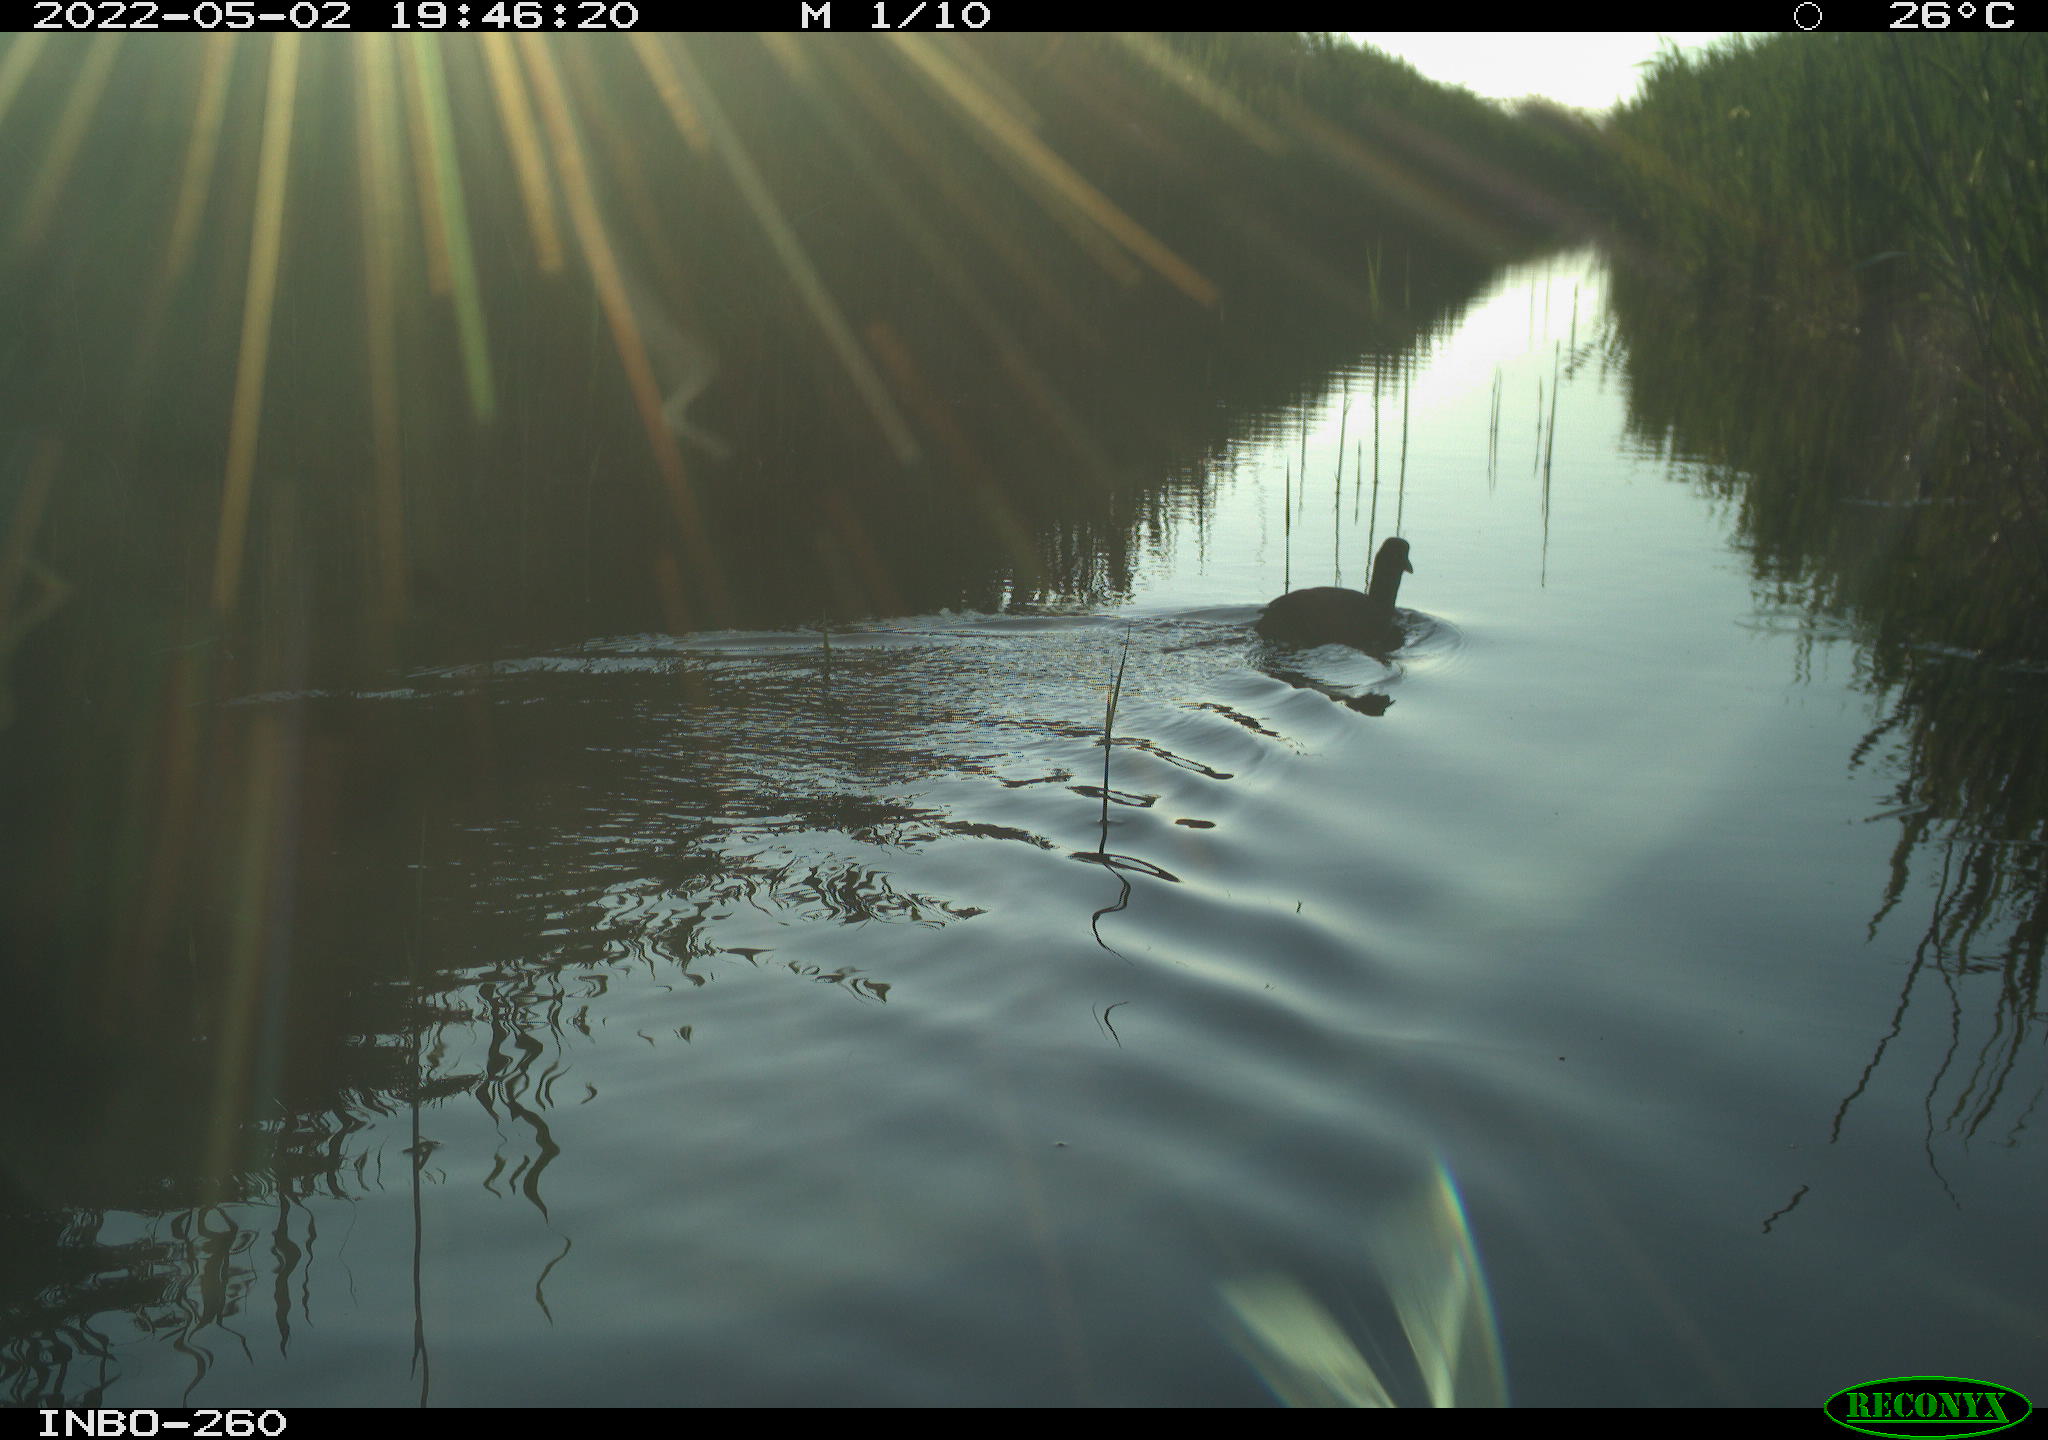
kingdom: Animalia
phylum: Chordata
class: Aves
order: Gruiformes
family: Rallidae
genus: Fulica
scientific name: Fulica atra
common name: Eurasian coot
